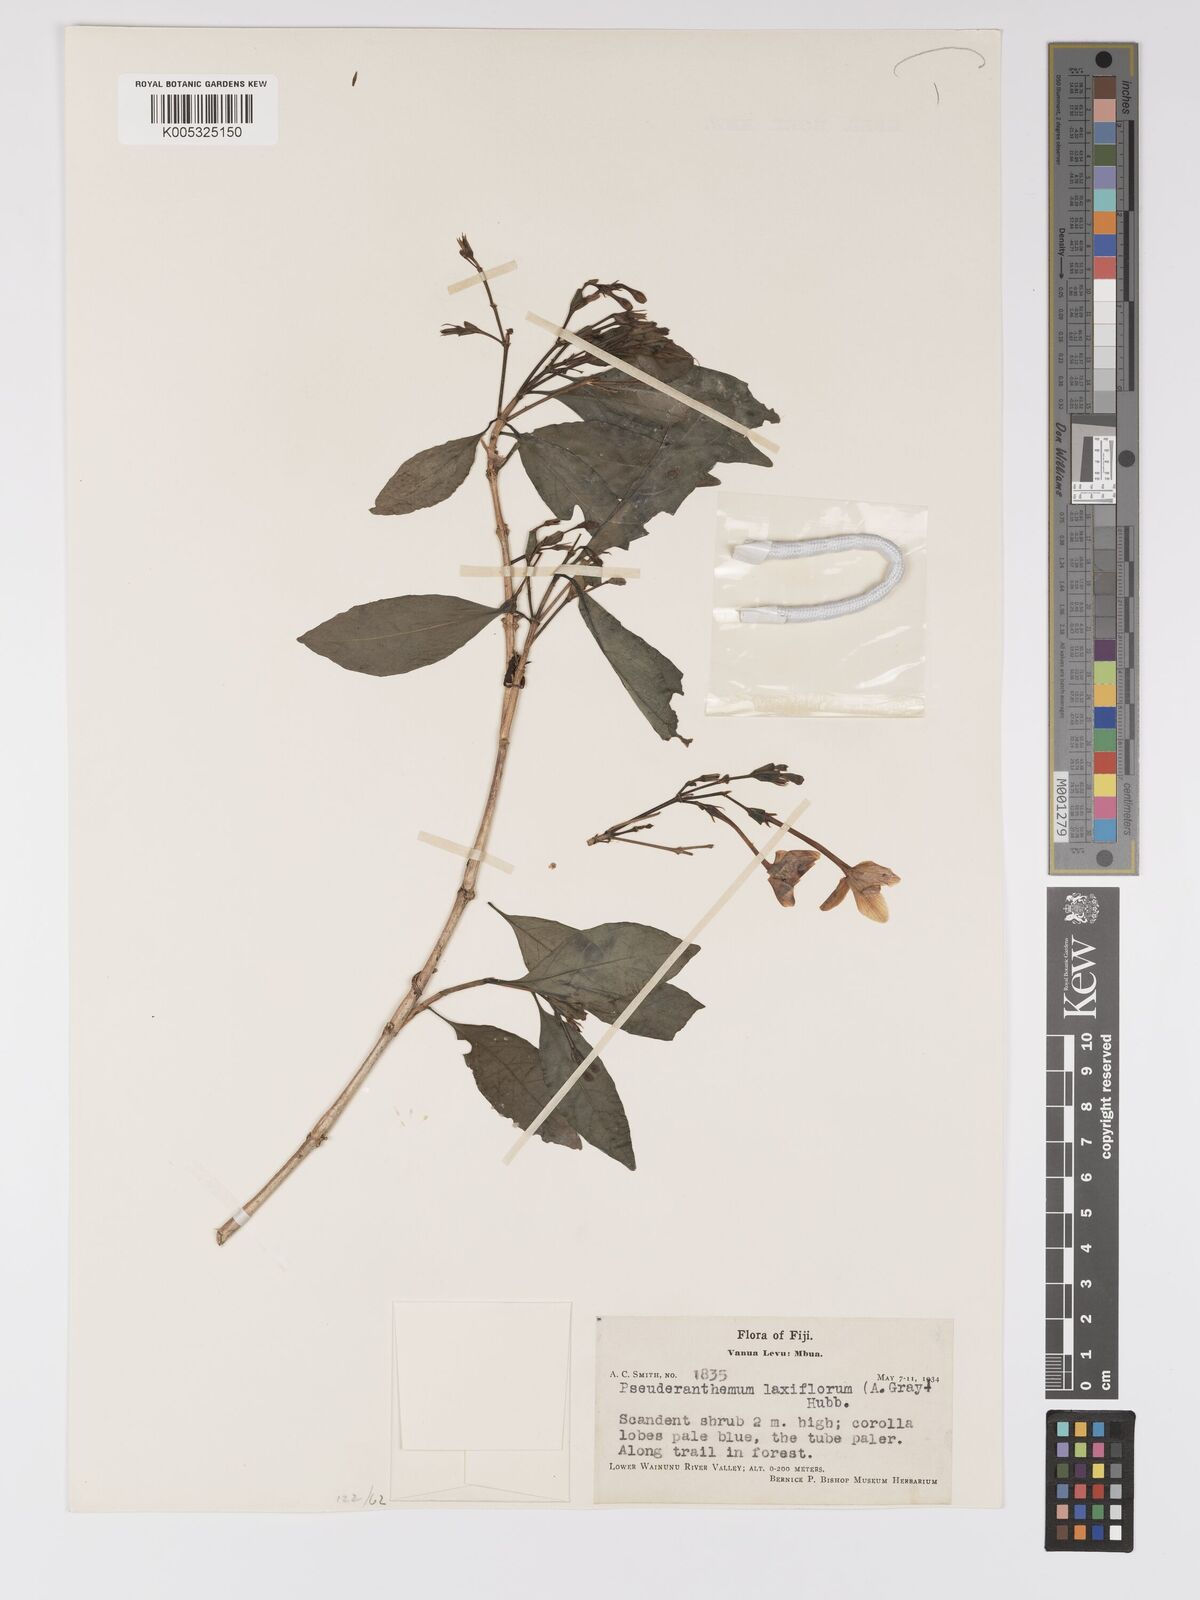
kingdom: Plantae
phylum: Tracheophyta
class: Magnoliopsida
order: Lamiales
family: Acanthaceae
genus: Pseuderanthemum
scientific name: Pseuderanthemum laxiflorum
